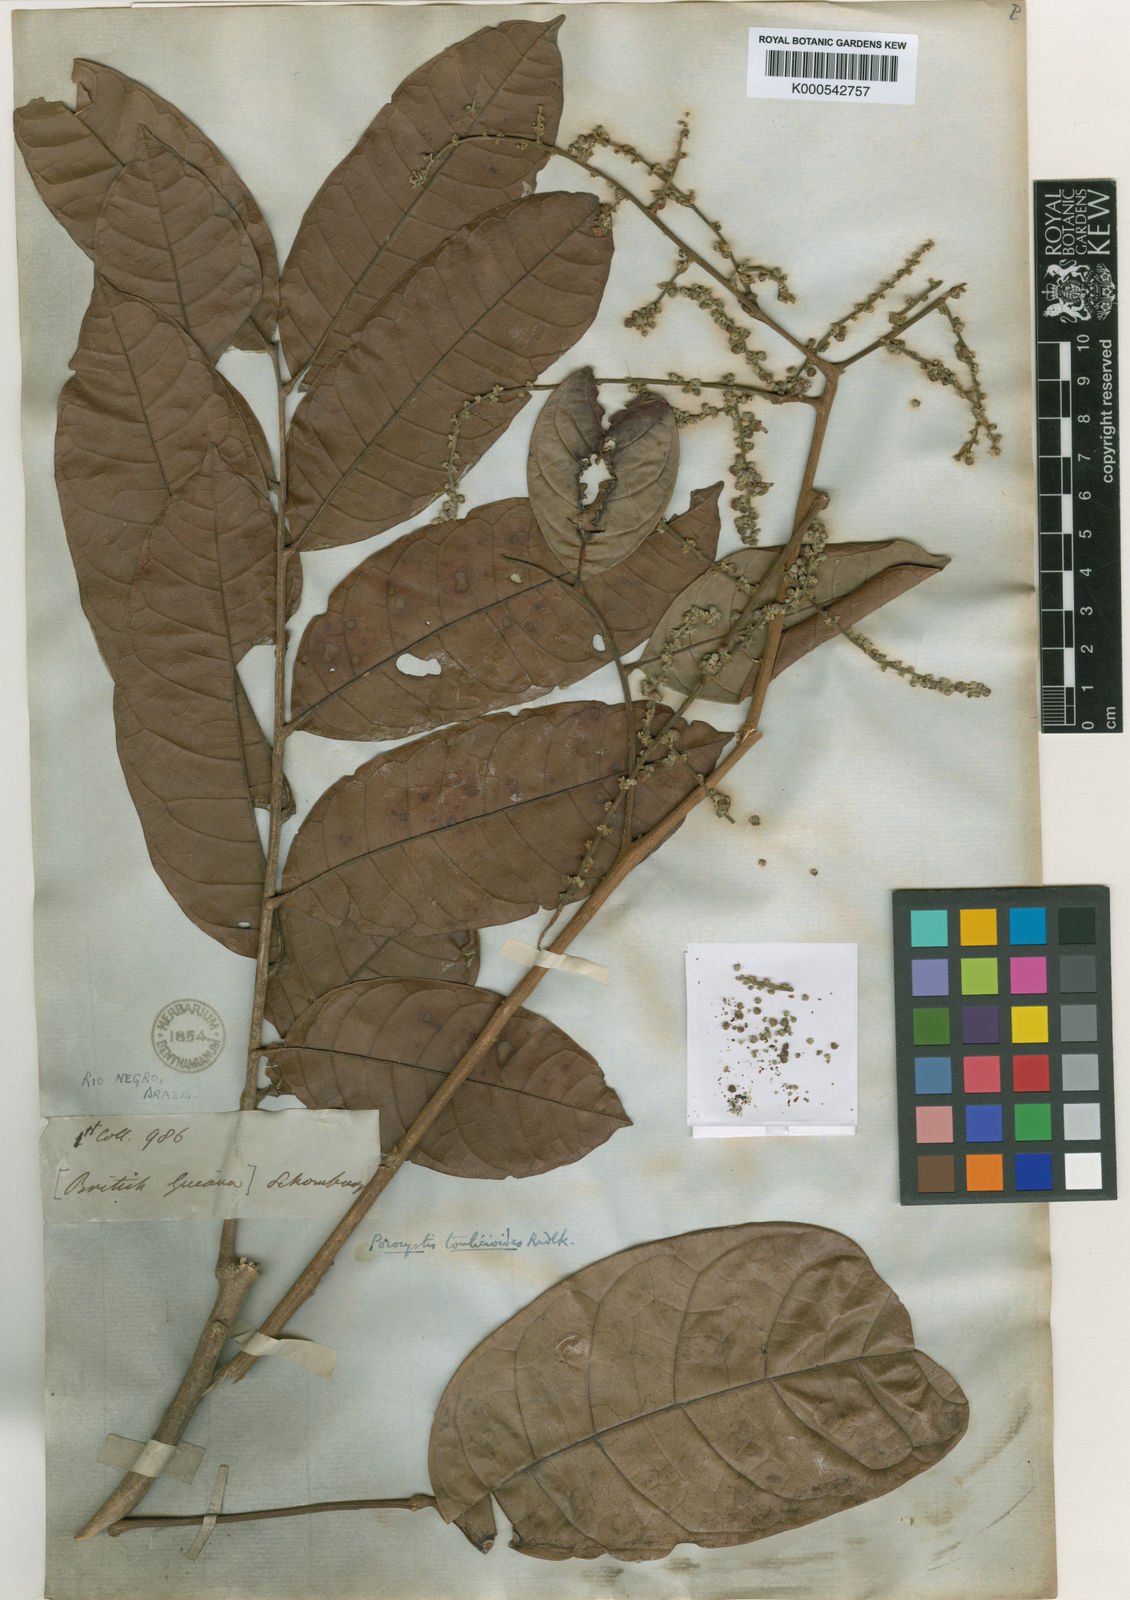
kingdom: Plantae
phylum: Tracheophyta
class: Magnoliopsida
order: Sapindales
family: Sapindaceae
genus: Porocystis
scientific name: Porocystis toulicioides
